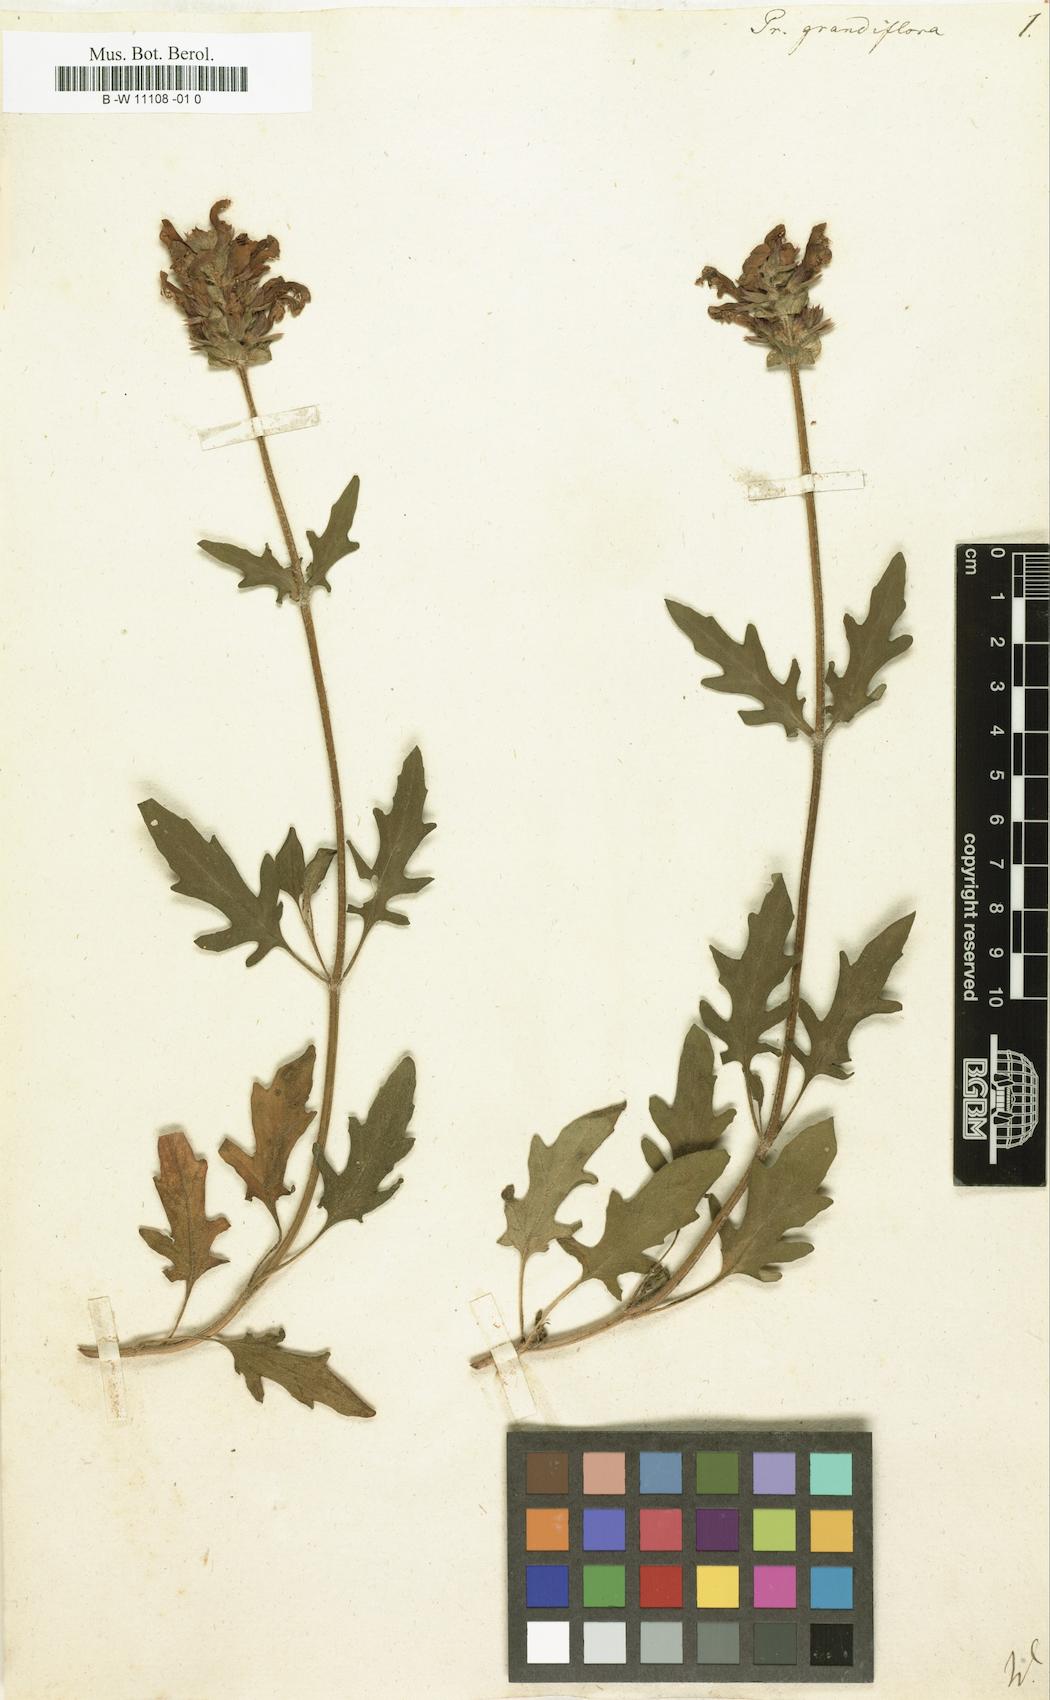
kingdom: Plantae
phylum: Tracheophyta
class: Magnoliopsida
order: Lamiales
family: Lamiaceae
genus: Prunella
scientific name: Prunella grandiflora
